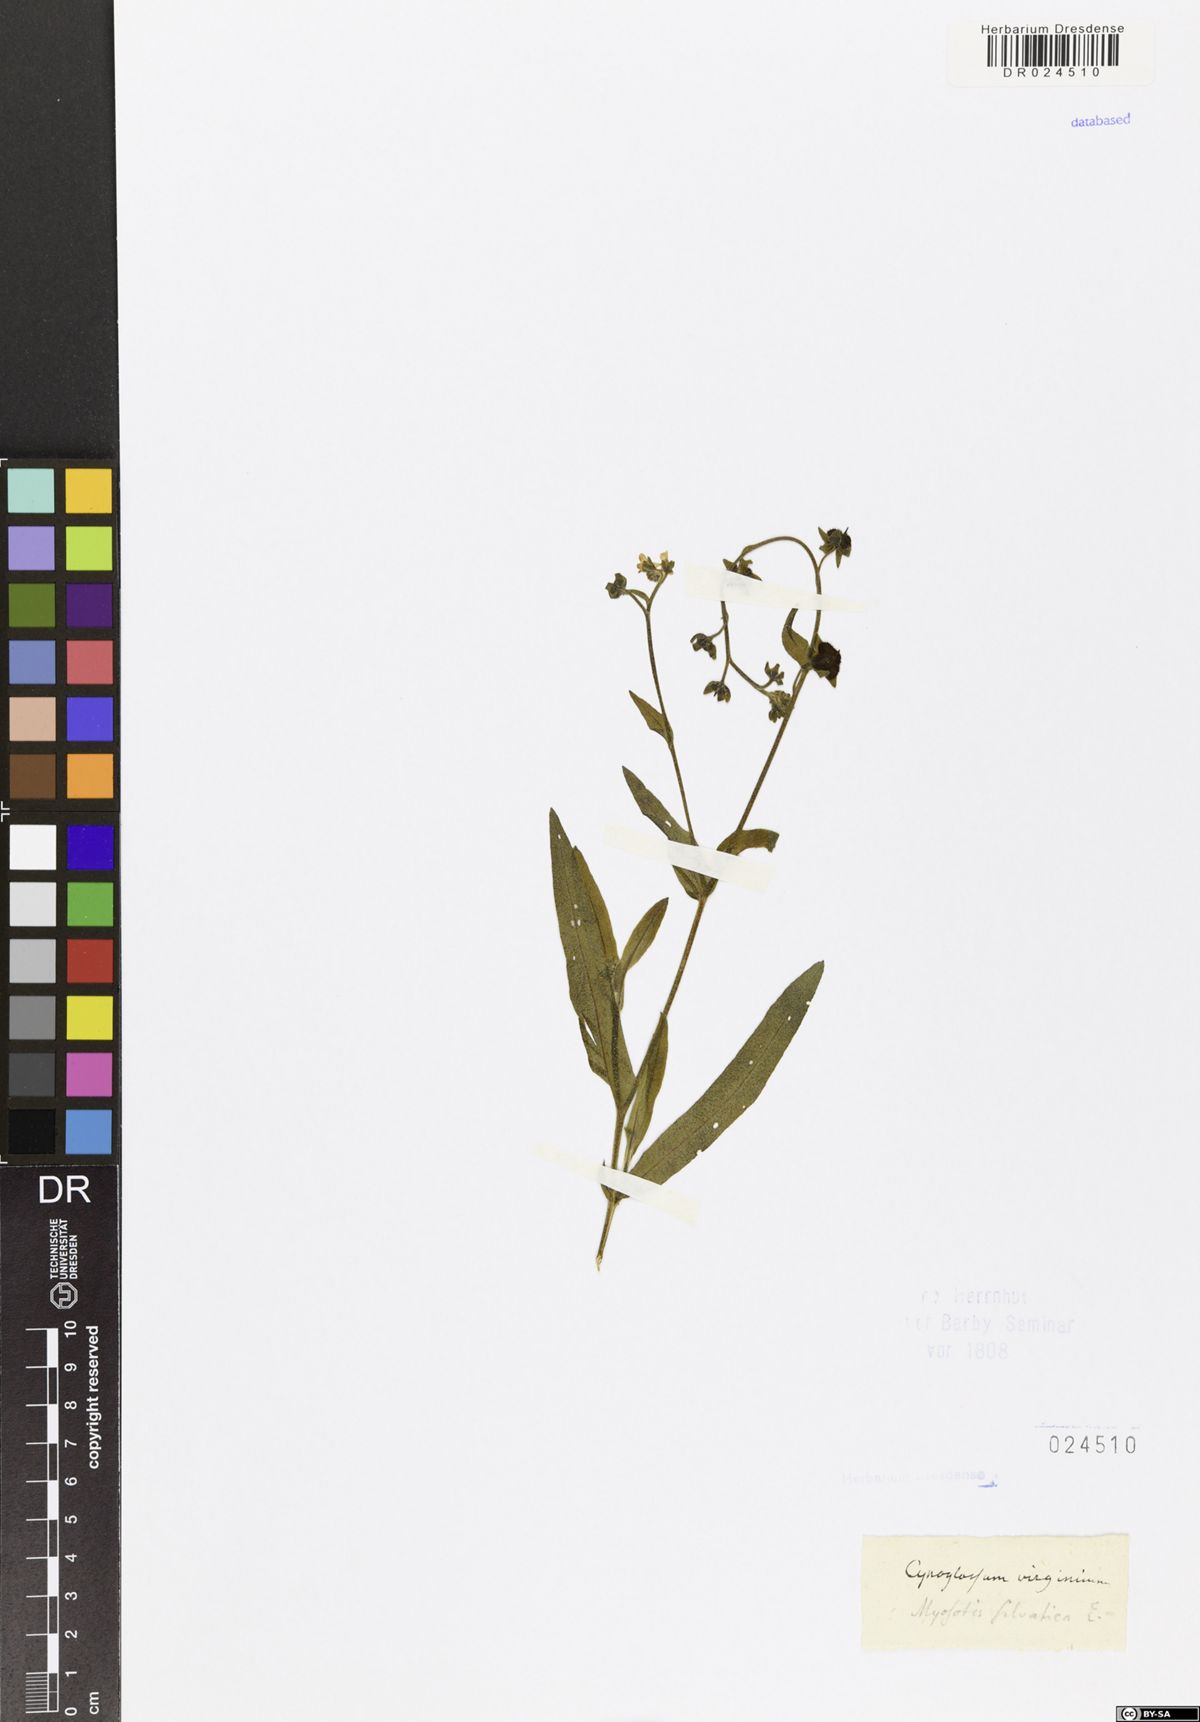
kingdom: Plantae
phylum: Tracheophyta
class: Magnoliopsida
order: Boraginales
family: Boraginaceae
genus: Myosotis
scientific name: Myosotis sylvatica
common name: Wood forget-me-not
